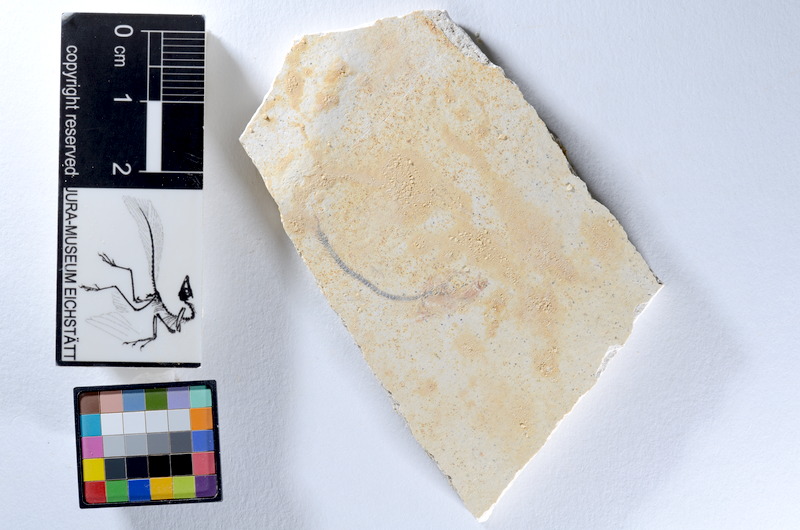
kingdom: Animalia
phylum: Chordata
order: Salmoniformes
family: Orthogonikleithridae
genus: Orthogonikleithrus
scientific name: Orthogonikleithrus hoelli
